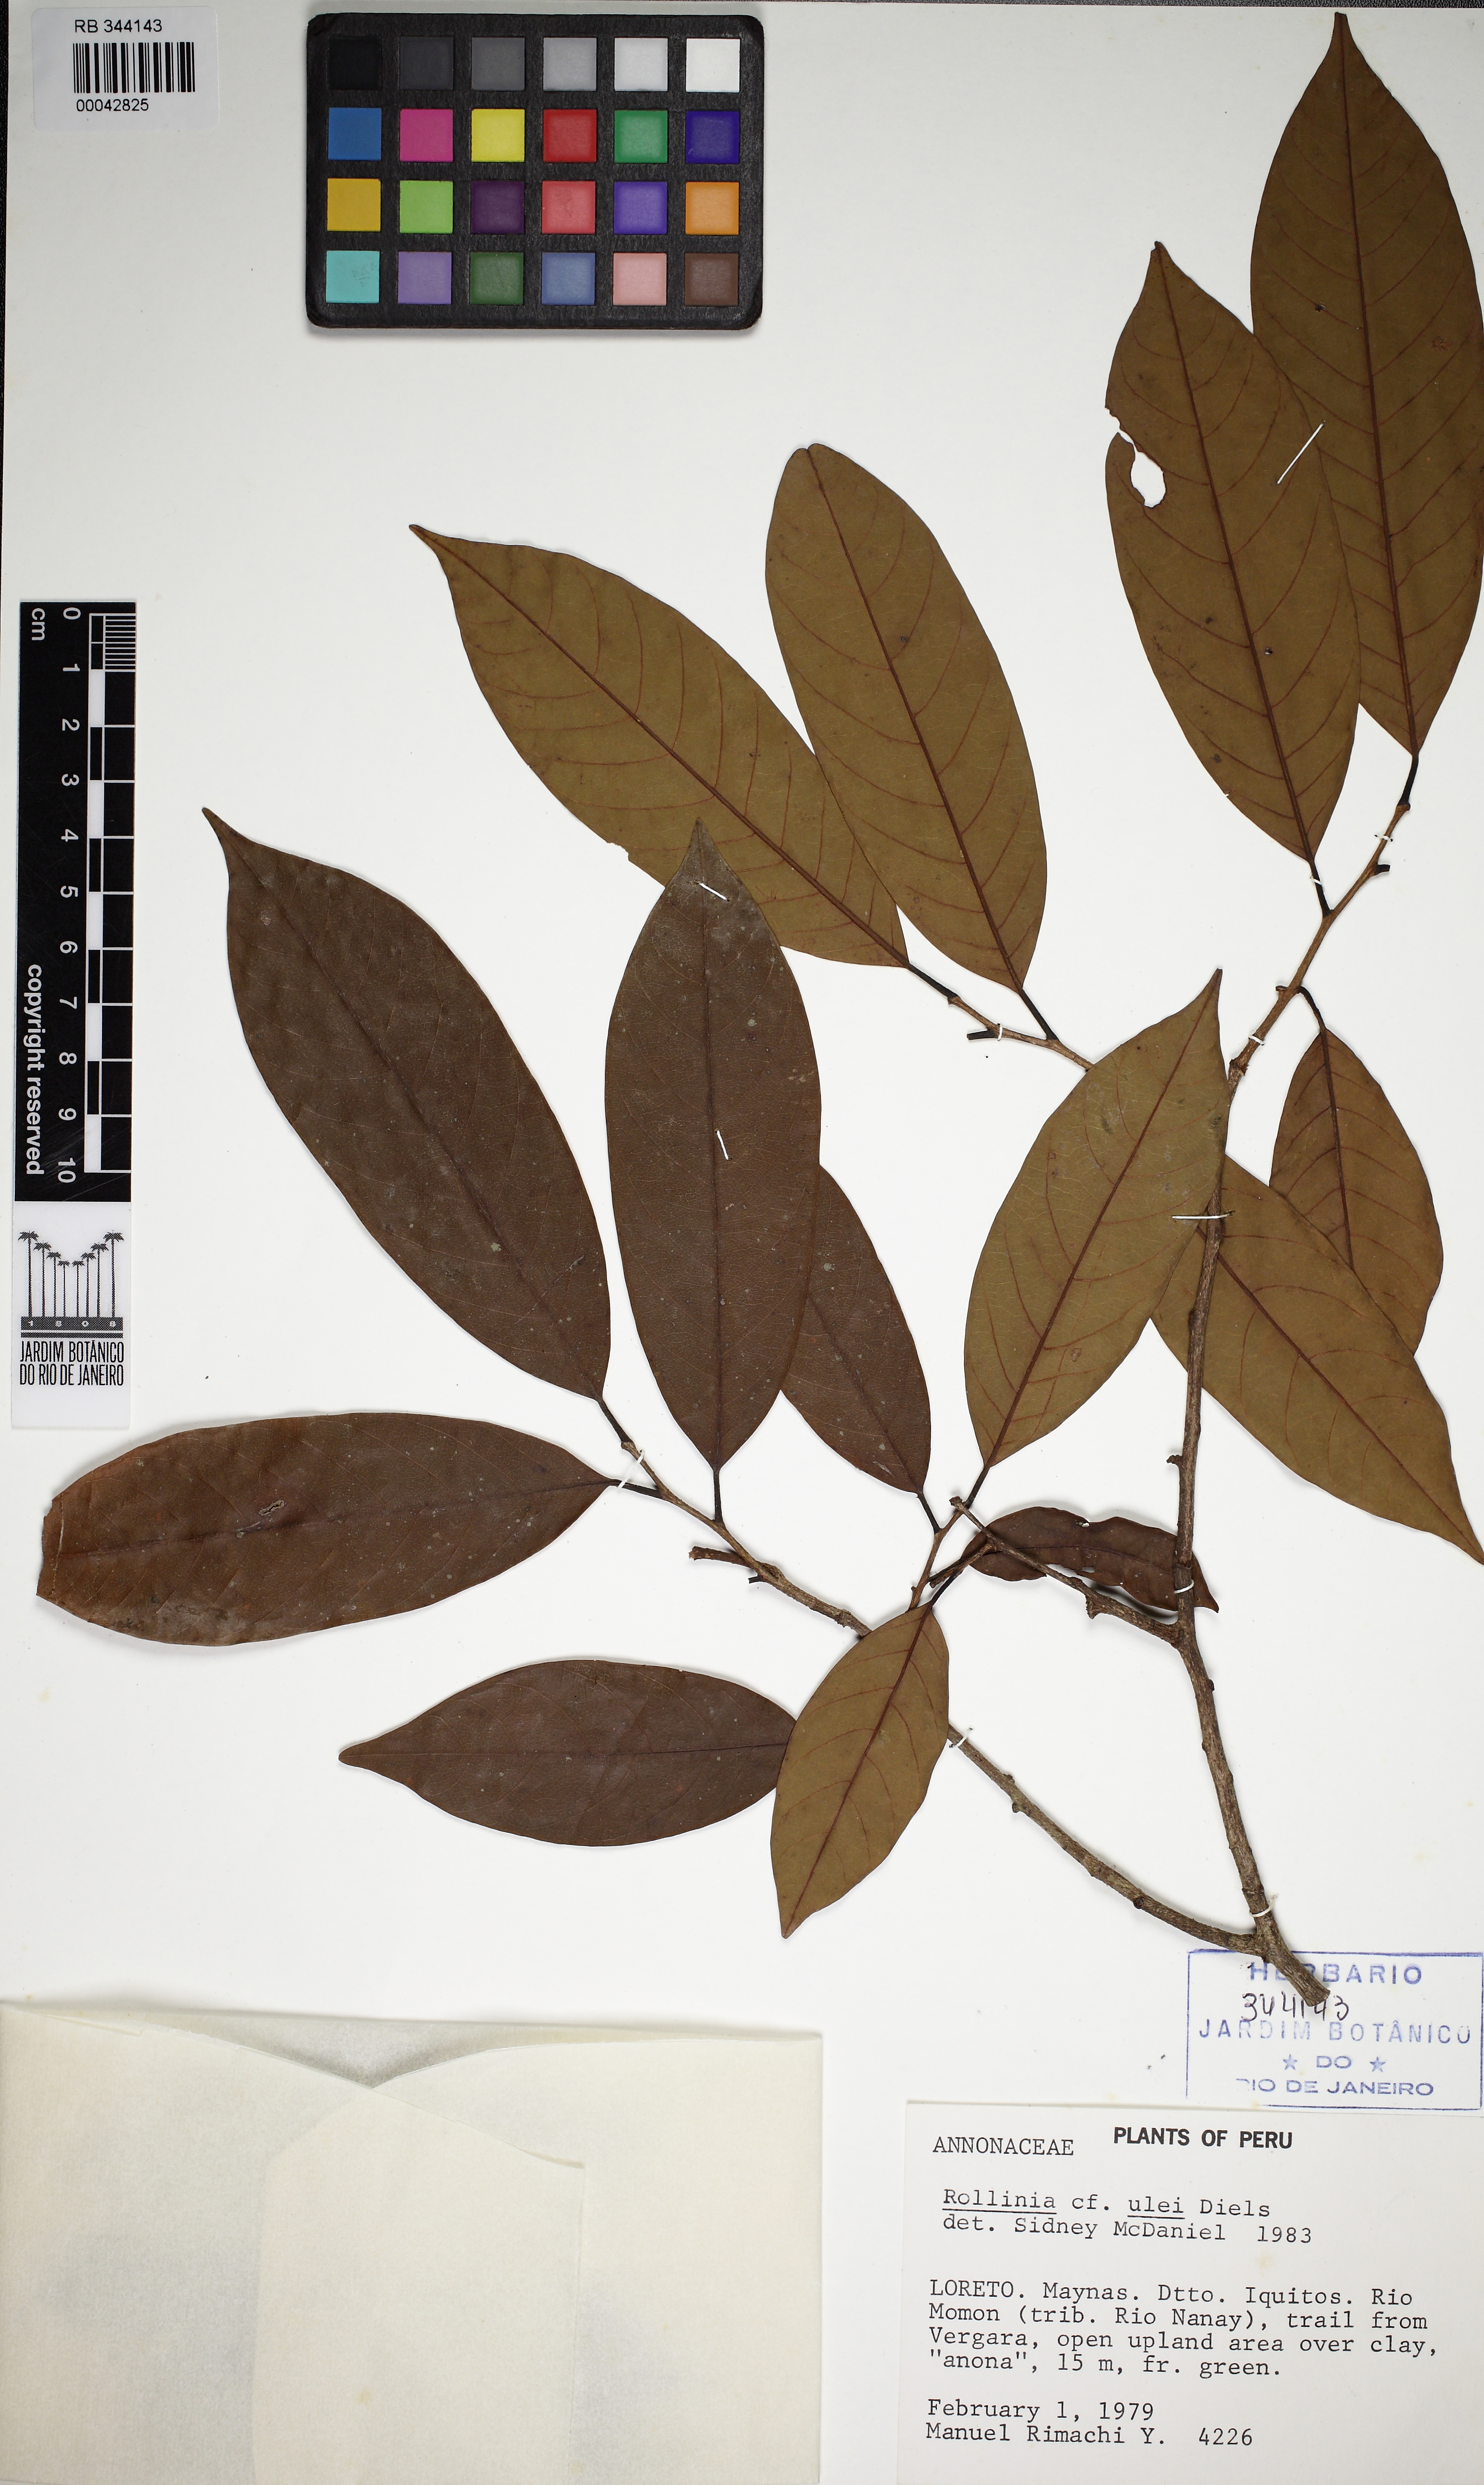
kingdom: Plantae
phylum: Tracheophyta
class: Magnoliopsida
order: Magnoliales
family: Annonaceae
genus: Annona
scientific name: Annona jahnii
